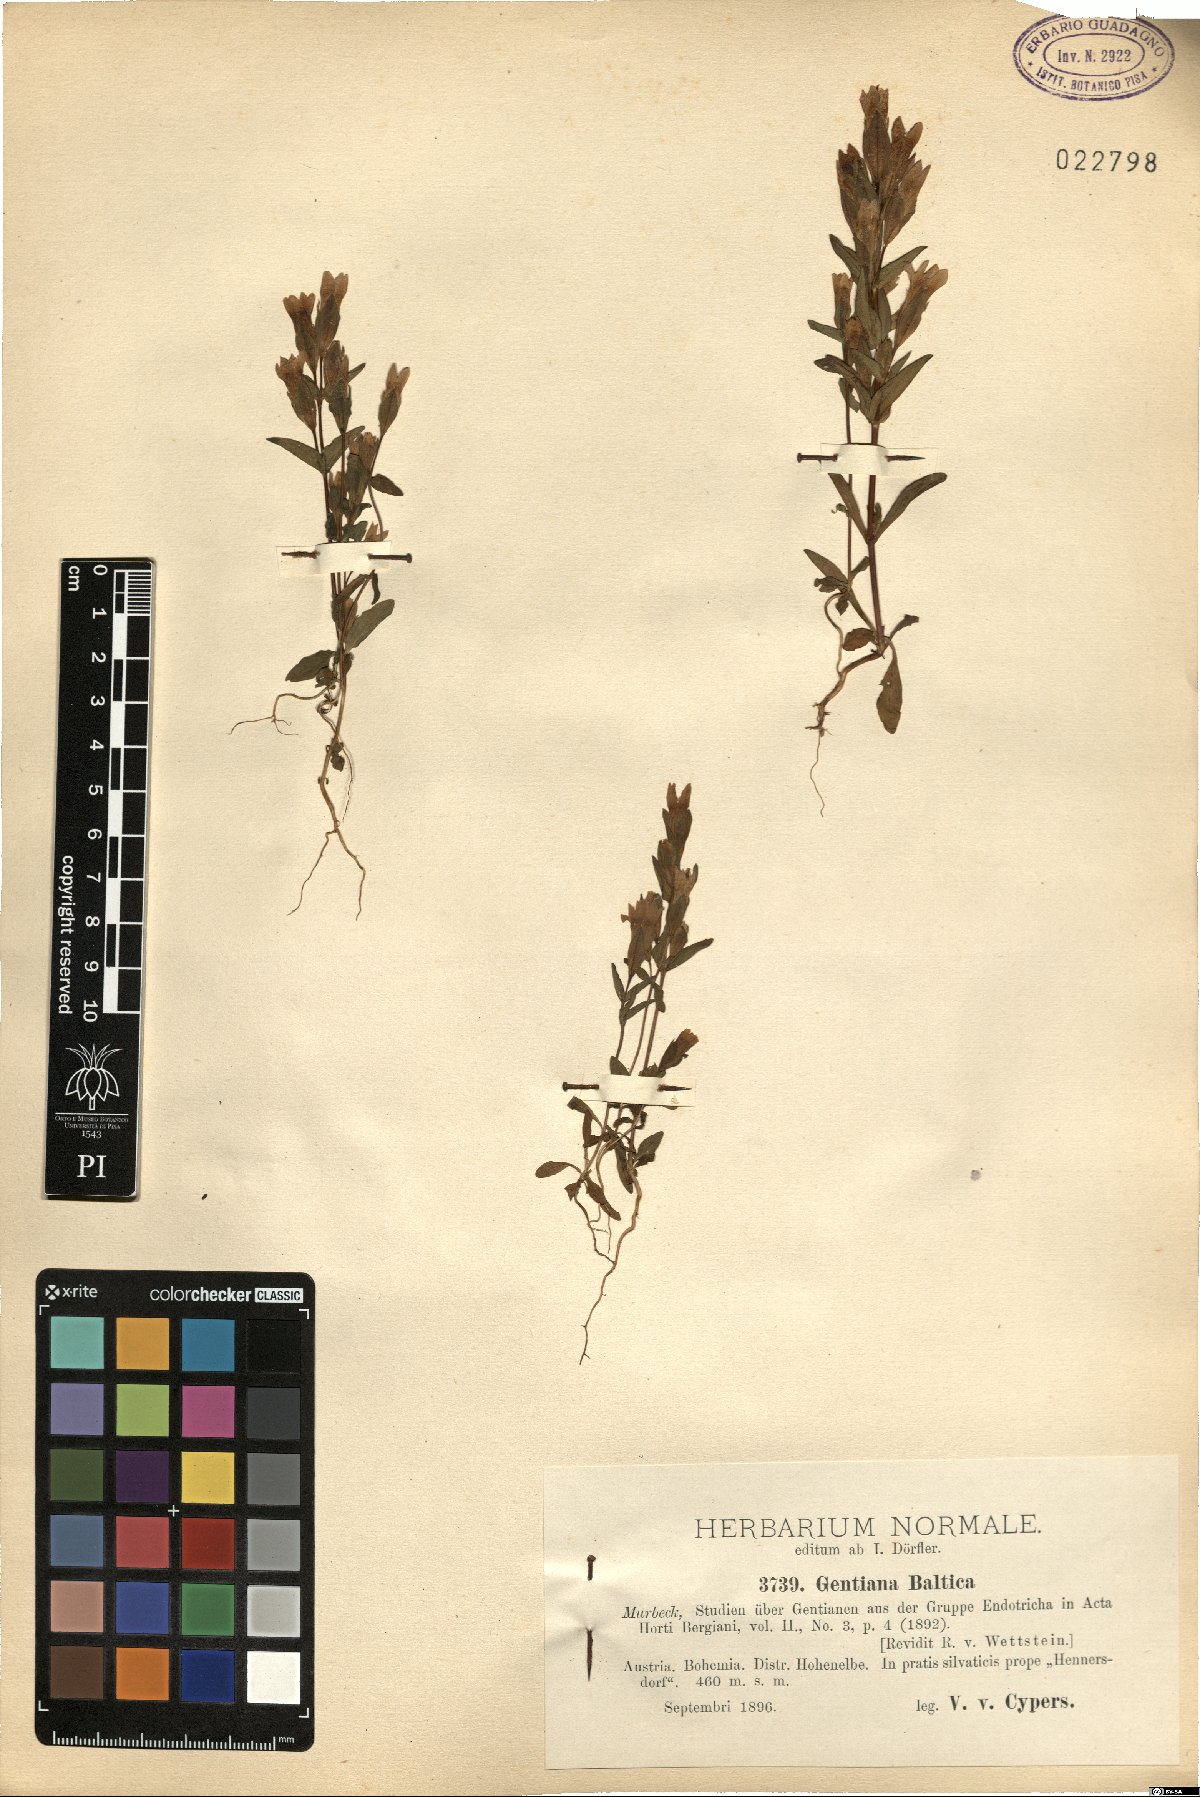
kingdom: Plantae
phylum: Tracheophyta
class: Magnoliopsida
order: Gentianales
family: Gentianaceae
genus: Gentianella
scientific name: Gentianella campestris
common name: Field gentian
